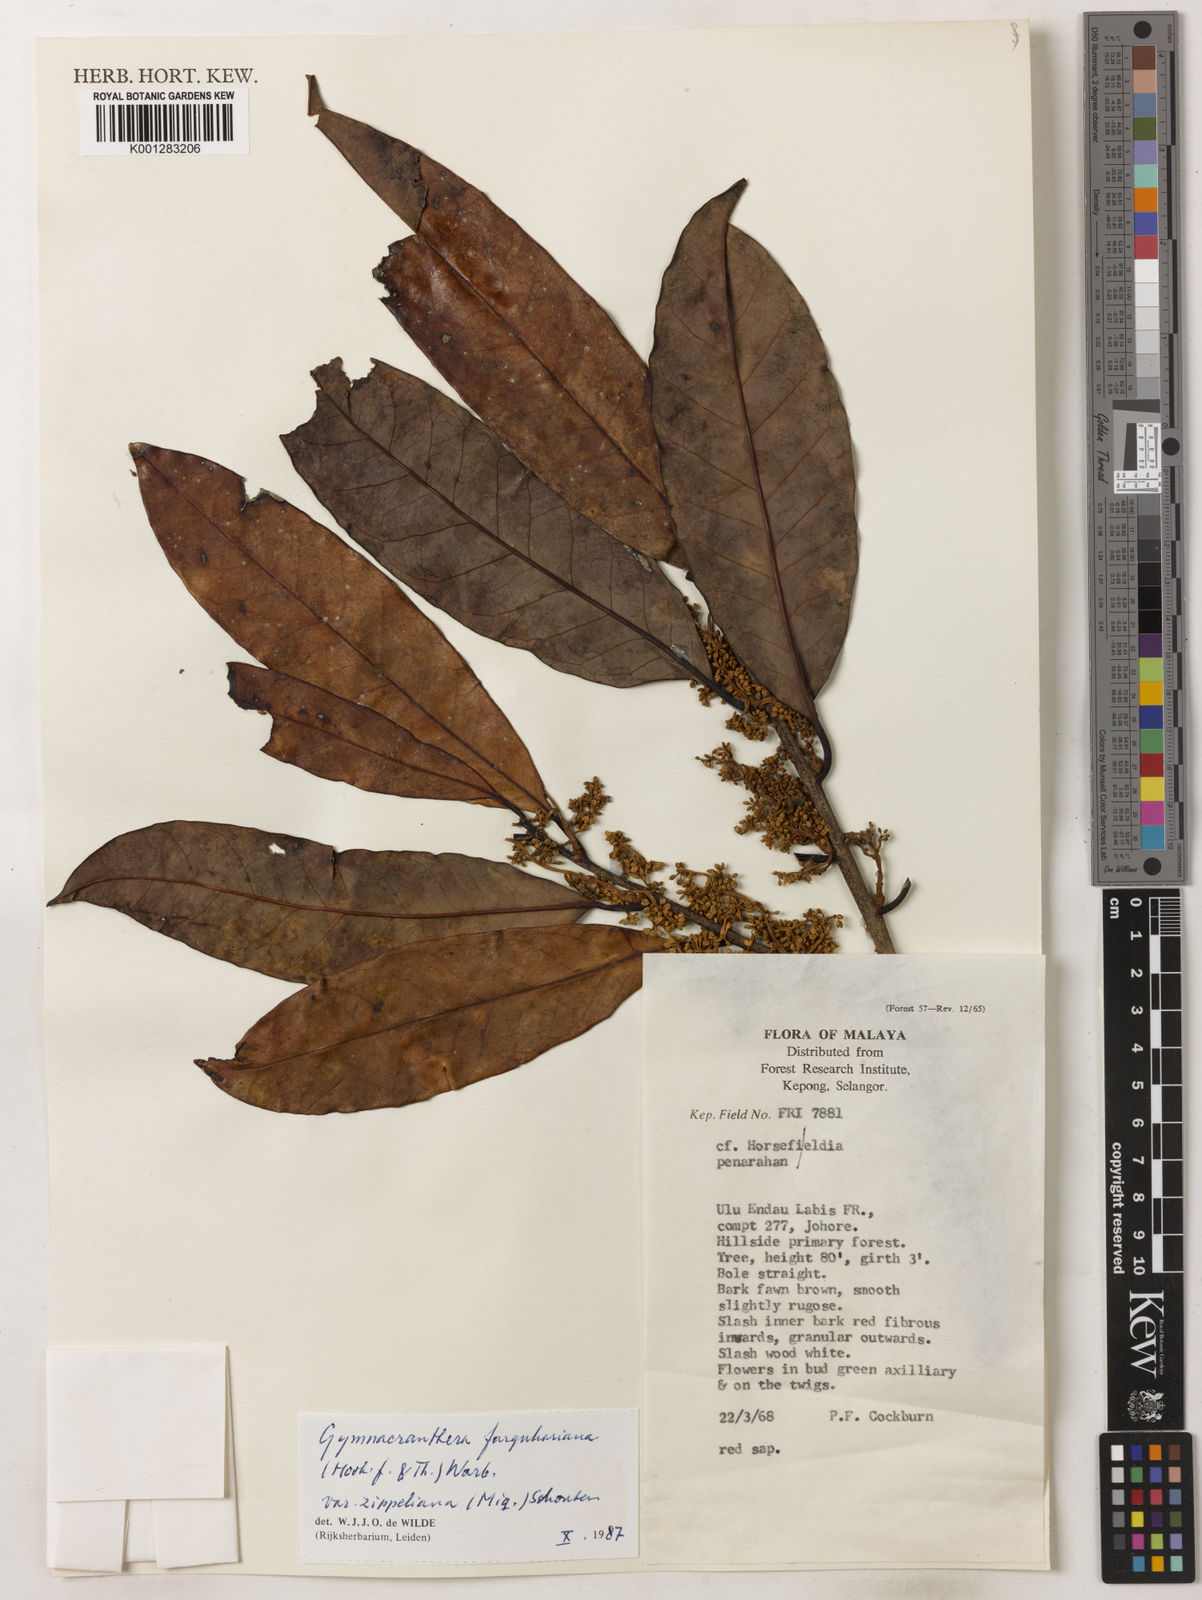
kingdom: Plantae
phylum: Tracheophyta
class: Magnoliopsida
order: Magnoliales
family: Myristicaceae
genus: Gymnacranthera
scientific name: Gymnacranthera farquhariana
